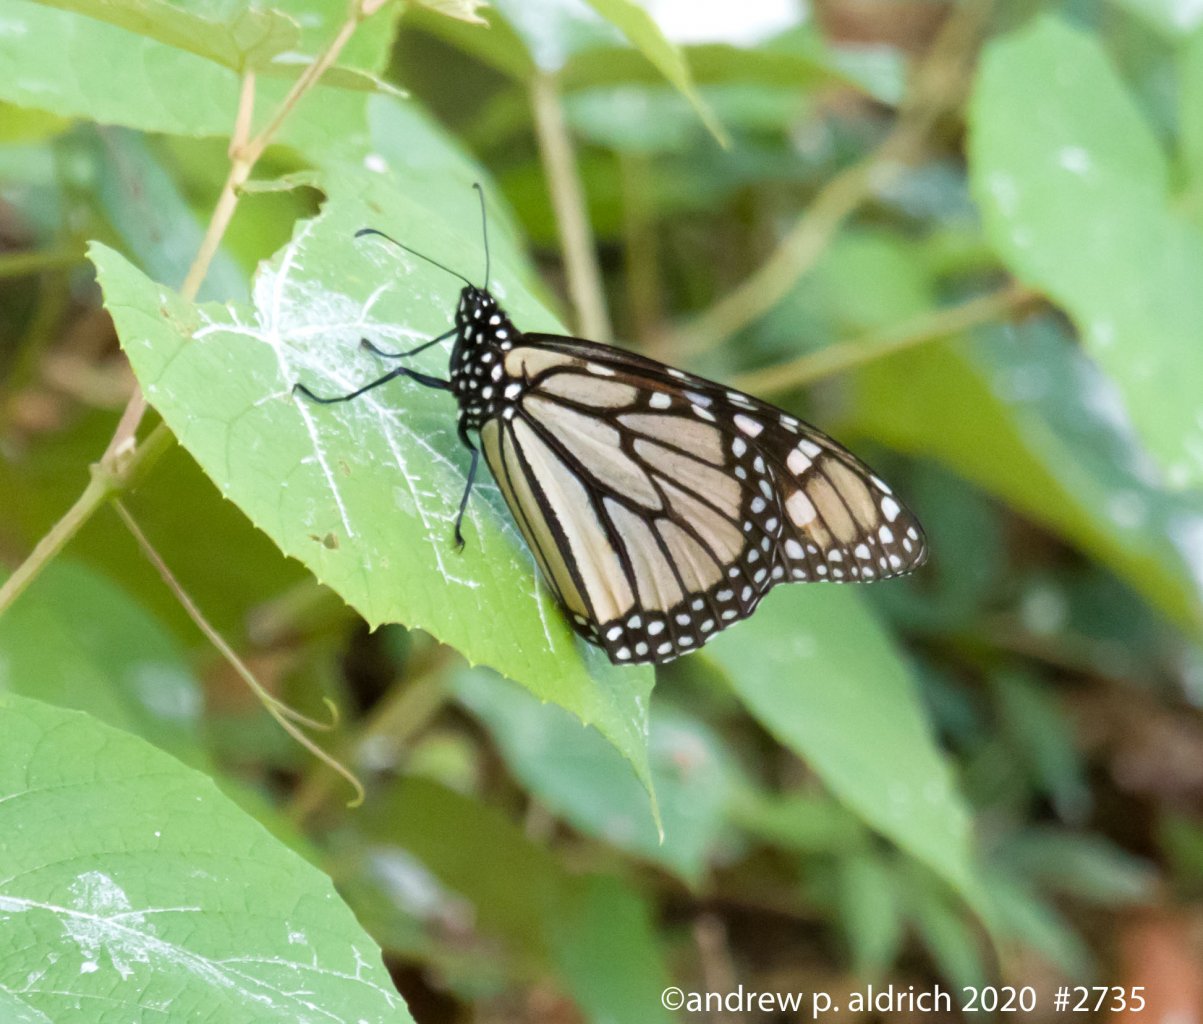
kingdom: Animalia
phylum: Arthropoda
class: Insecta
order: Lepidoptera
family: Nymphalidae
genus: Danaus
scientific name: Danaus plexippus
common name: Monarch
